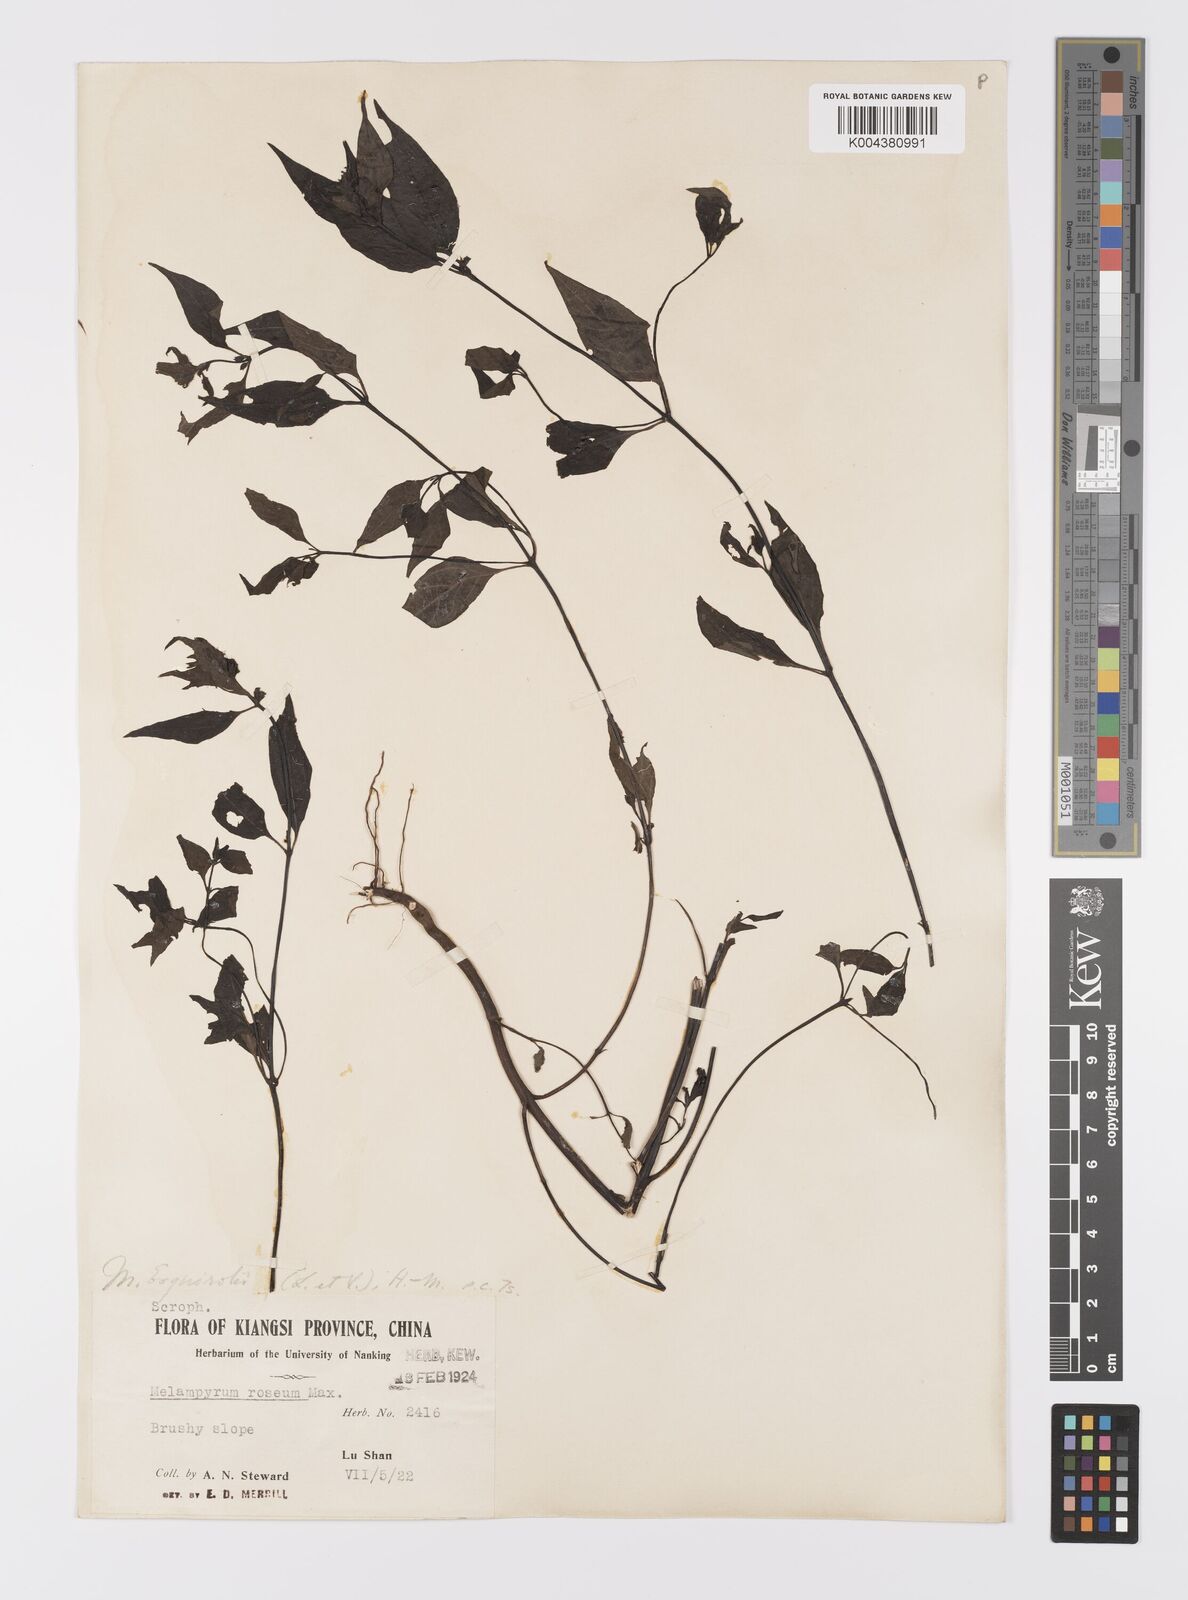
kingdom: Plantae
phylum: Tracheophyta
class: Magnoliopsida
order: Lamiales
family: Orobanchaceae
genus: Melampyrum
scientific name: Melampyrum roseum
